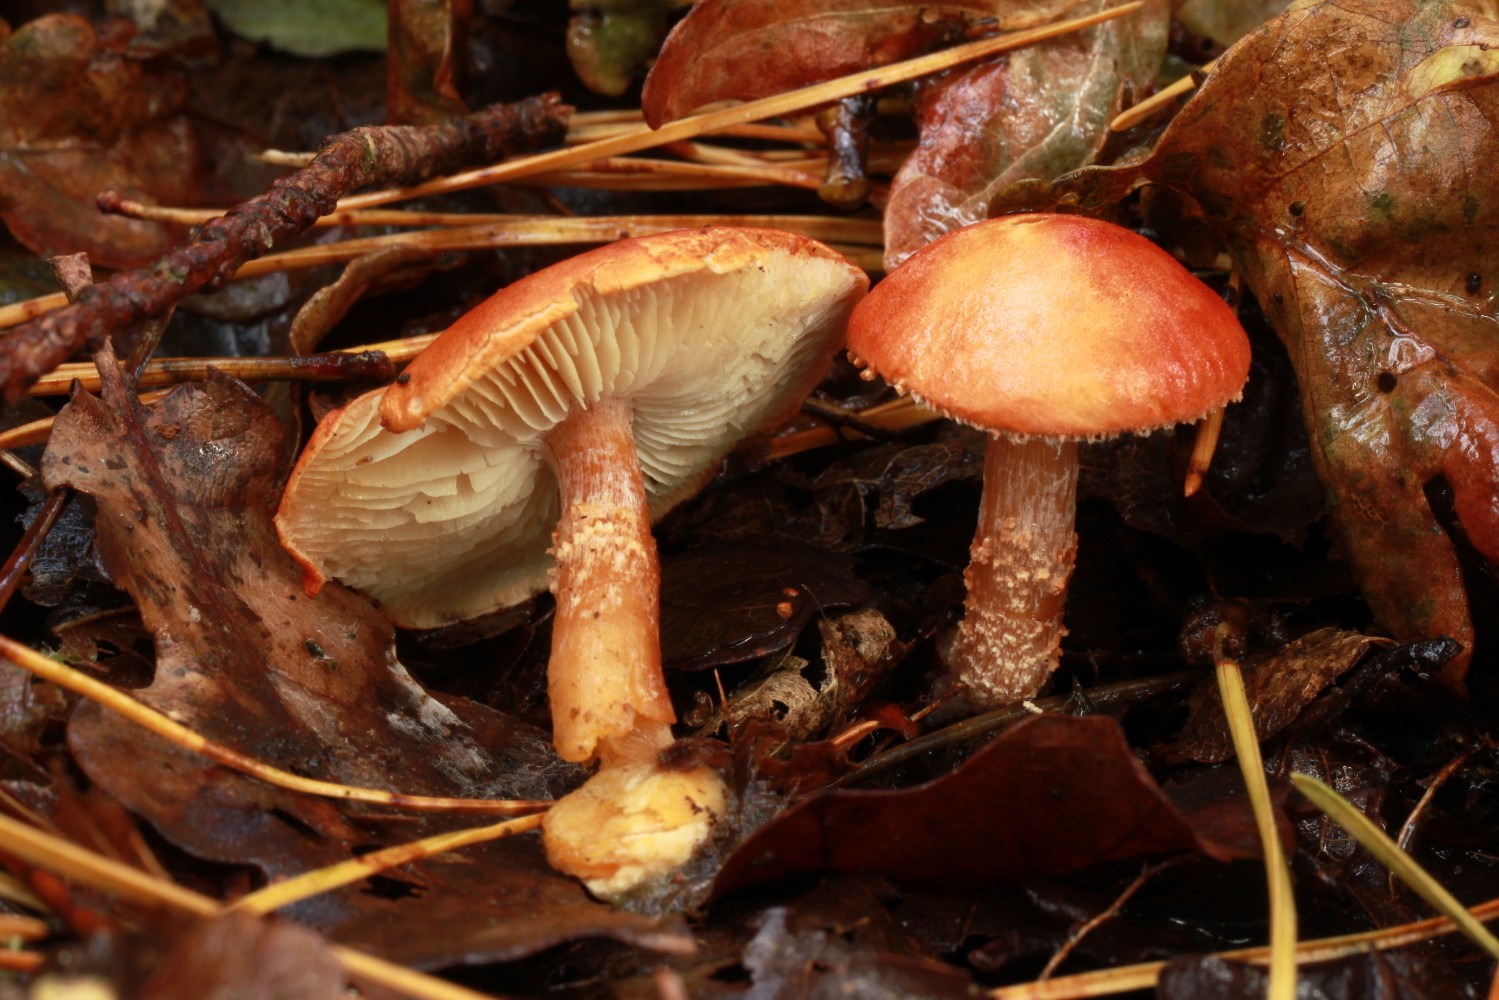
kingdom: Fungi
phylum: Basidiomycota
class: Agaricomycetes
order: Agaricales
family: Agaricaceae
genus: Cystodermella
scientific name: Cystodermella cinnabarina
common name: cinnober-grynhat
